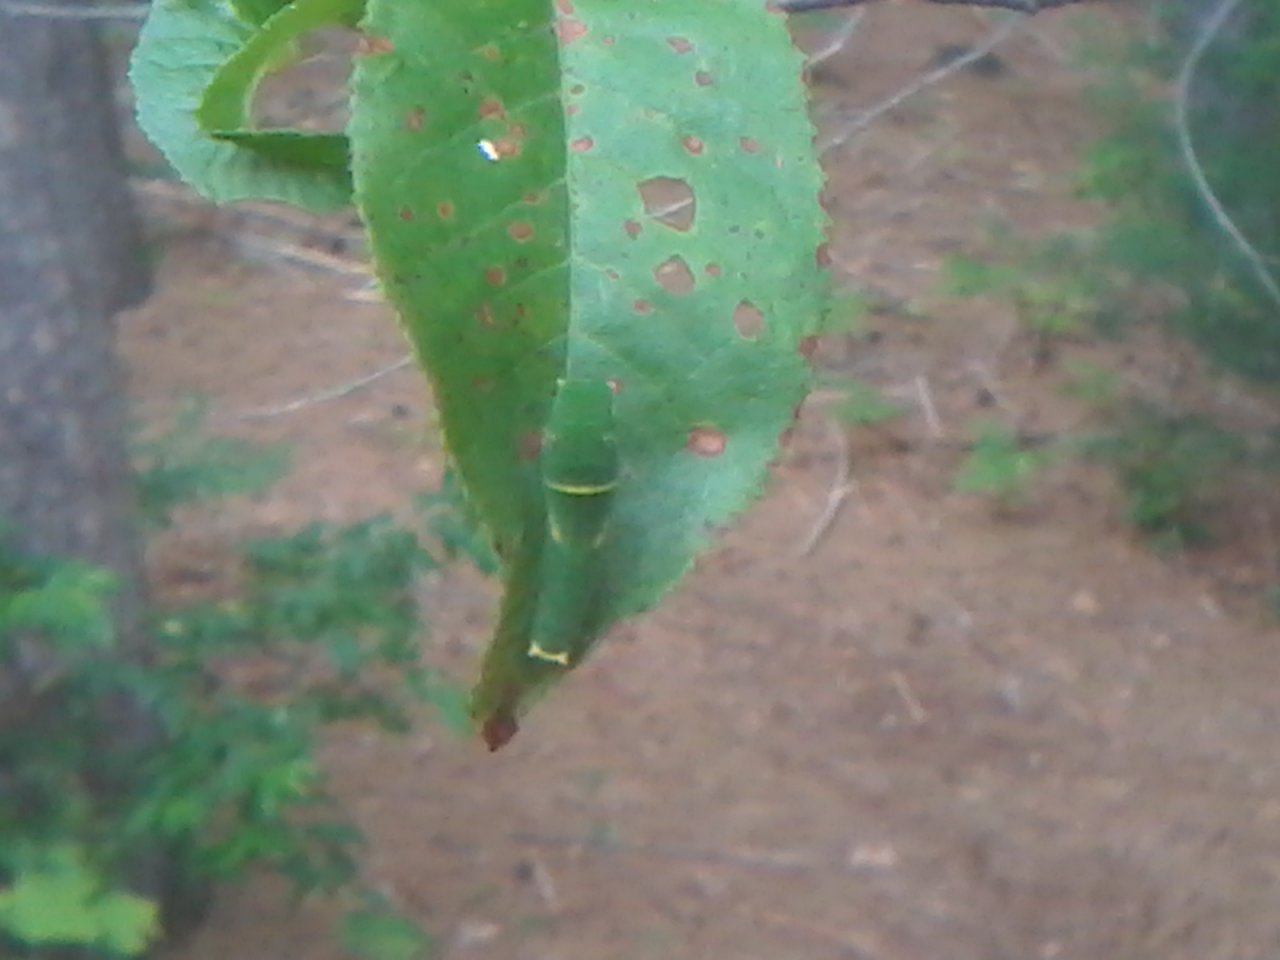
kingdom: Animalia
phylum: Arthropoda
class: Insecta
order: Lepidoptera
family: Papilionidae
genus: Pterourus
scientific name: Pterourus canadensis
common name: Canadian Tiger Swallowtail
